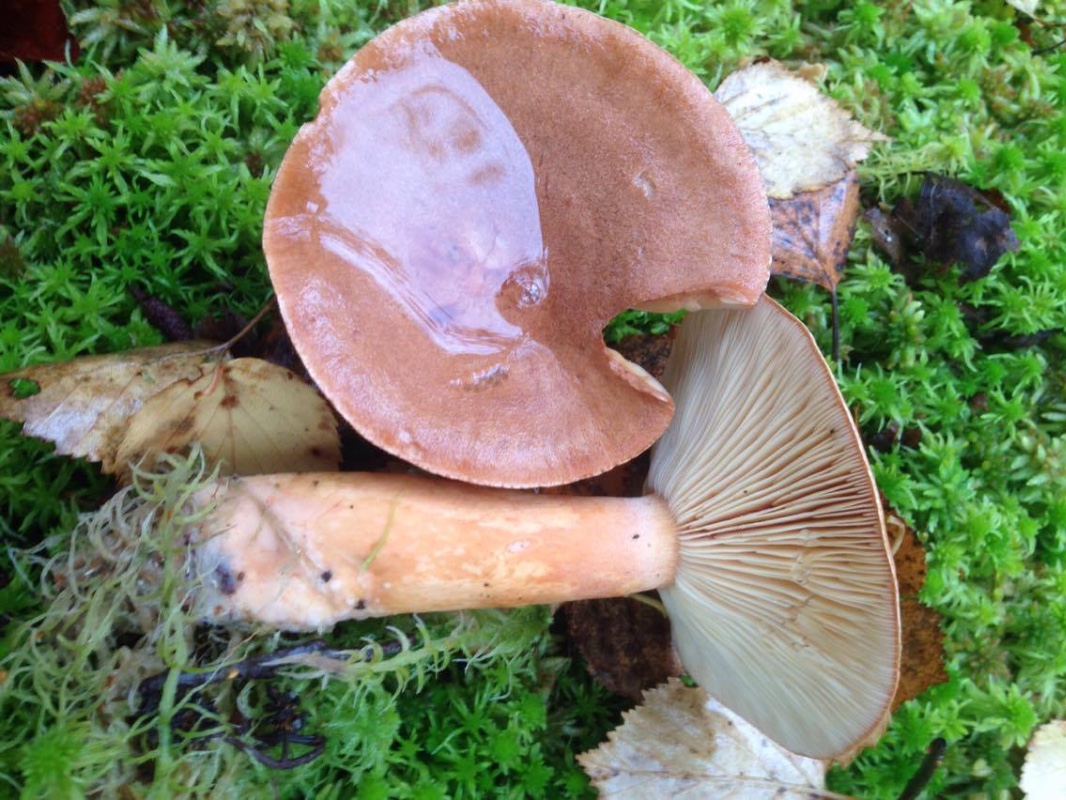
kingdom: Fungi
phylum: Basidiomycota
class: Agaricomycetes
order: Russulales
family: Russulaceae
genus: Lactarius
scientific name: Lactarius helvus
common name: mose-mælkehat
